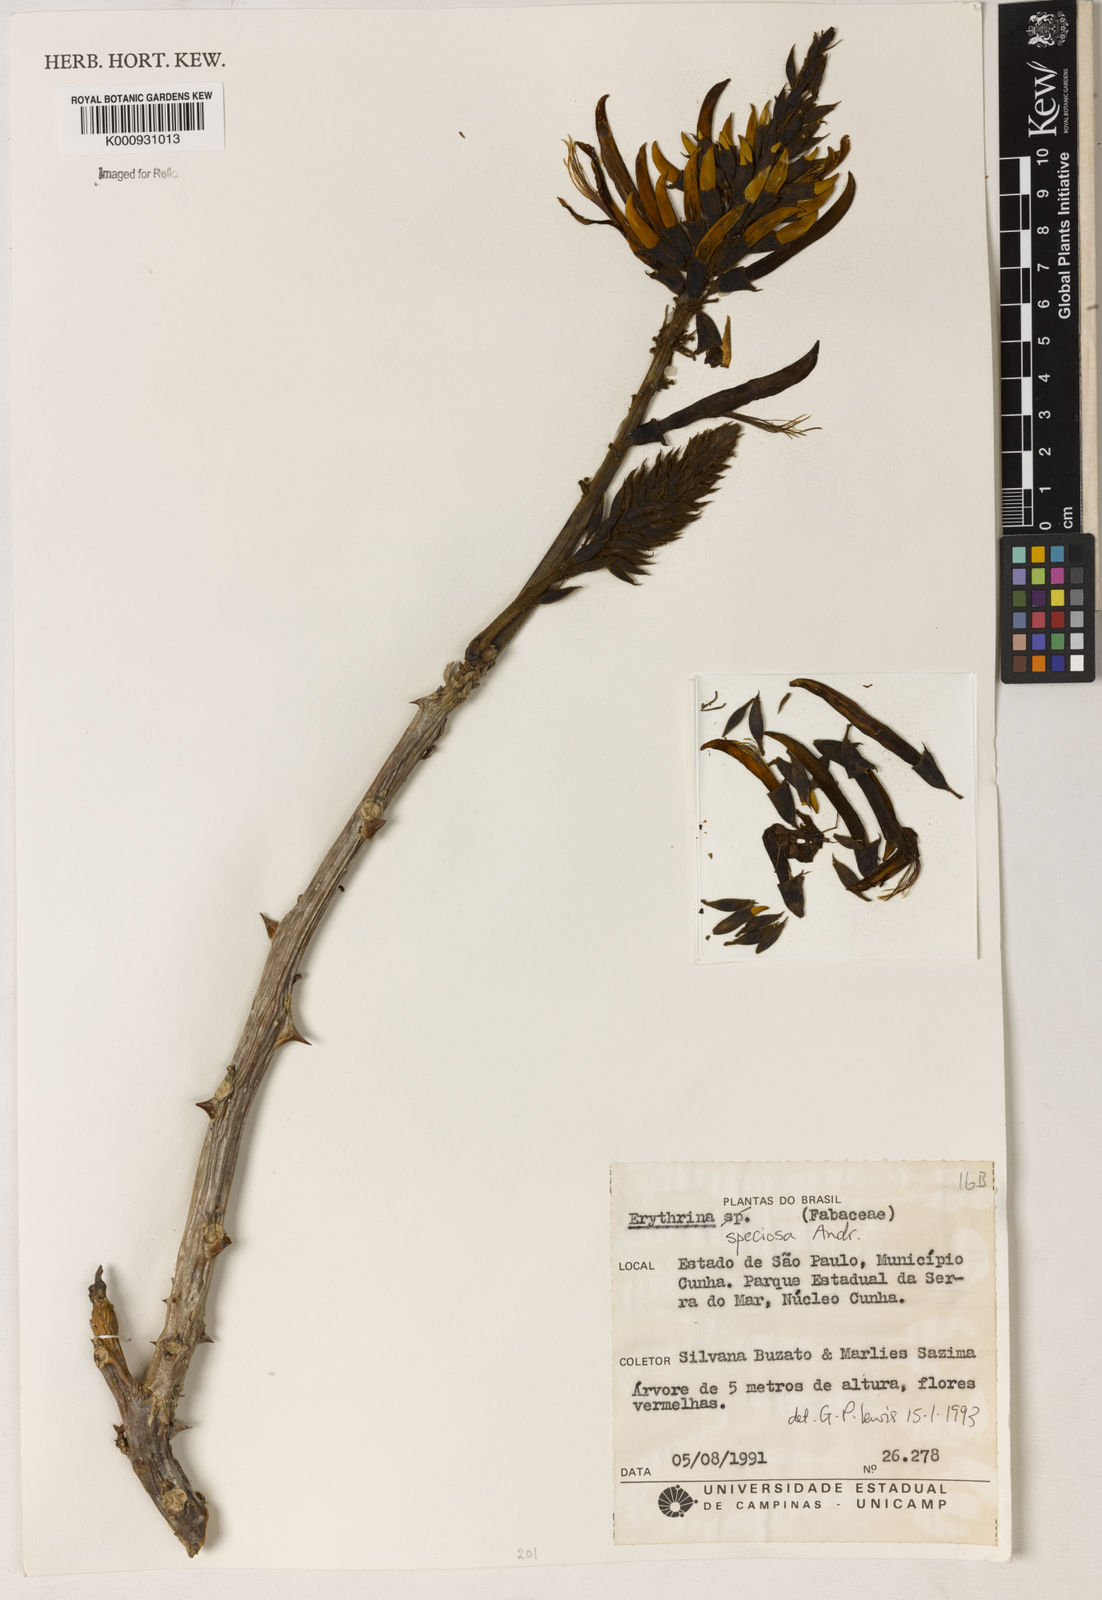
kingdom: Plantae
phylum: Tracheophyta
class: Magnoliopsida
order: Fabales
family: Fabaceae
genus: Erythrina
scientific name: Erythrina speciosa
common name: Coral tree
